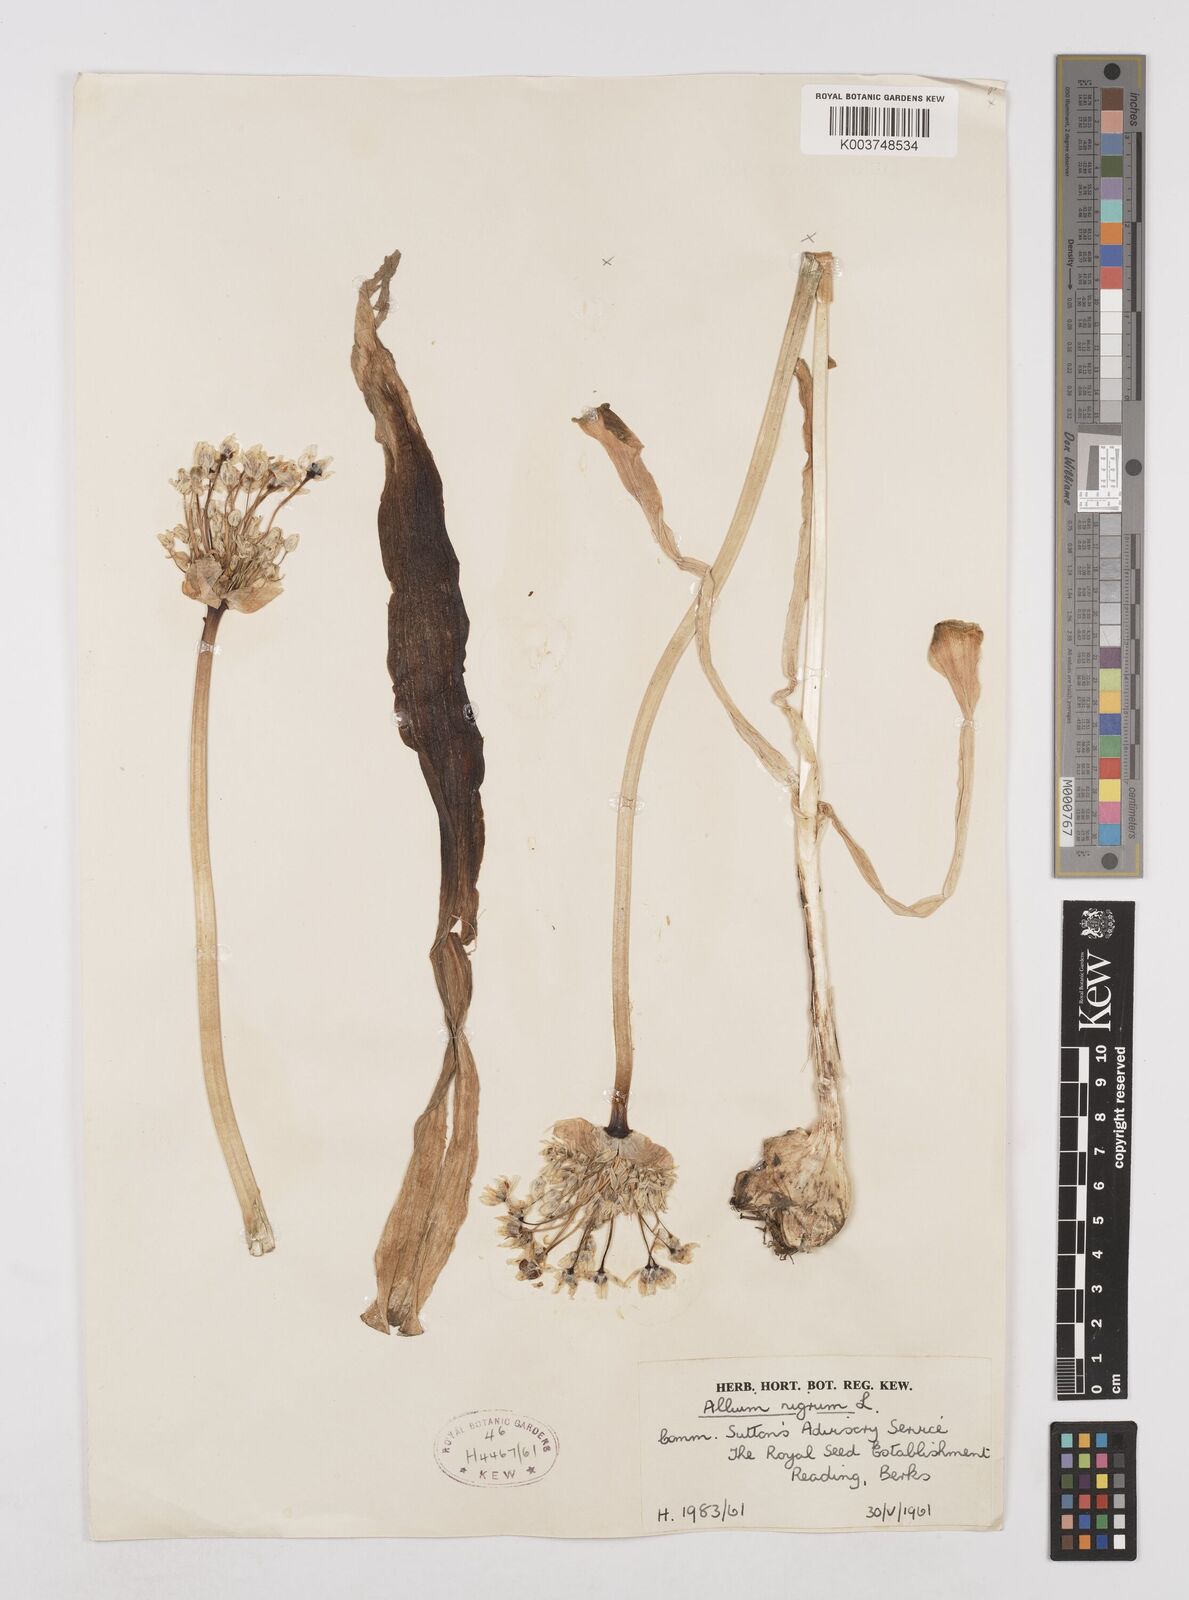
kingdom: Plantae
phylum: Tracheophyta
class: Liliopsida
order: Asparagales
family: Amaryllidaceae
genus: Allium
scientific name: Allium nigrum
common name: Black garlic
